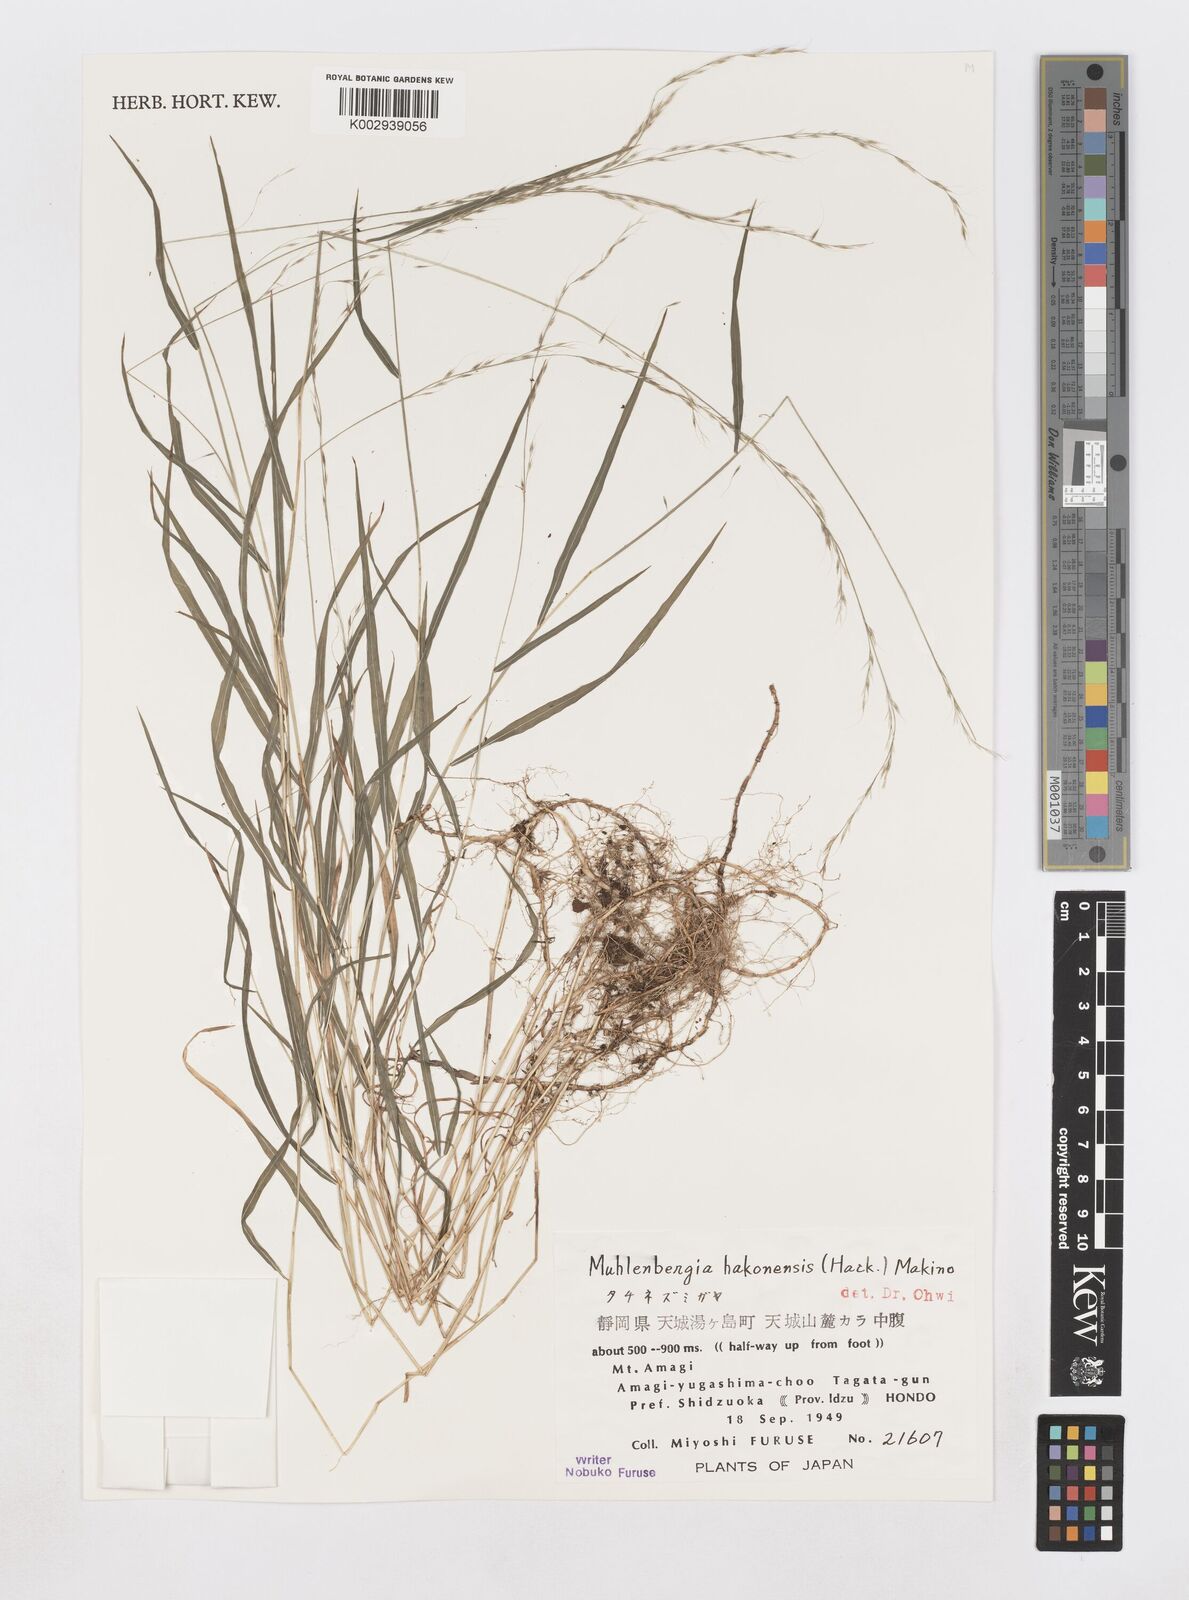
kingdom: Plantae
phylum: Tracheophyta
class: Liliopsida
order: Poales
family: Poaceae
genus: Muhlenbergia
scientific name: Muhlenbergia hakonensis
